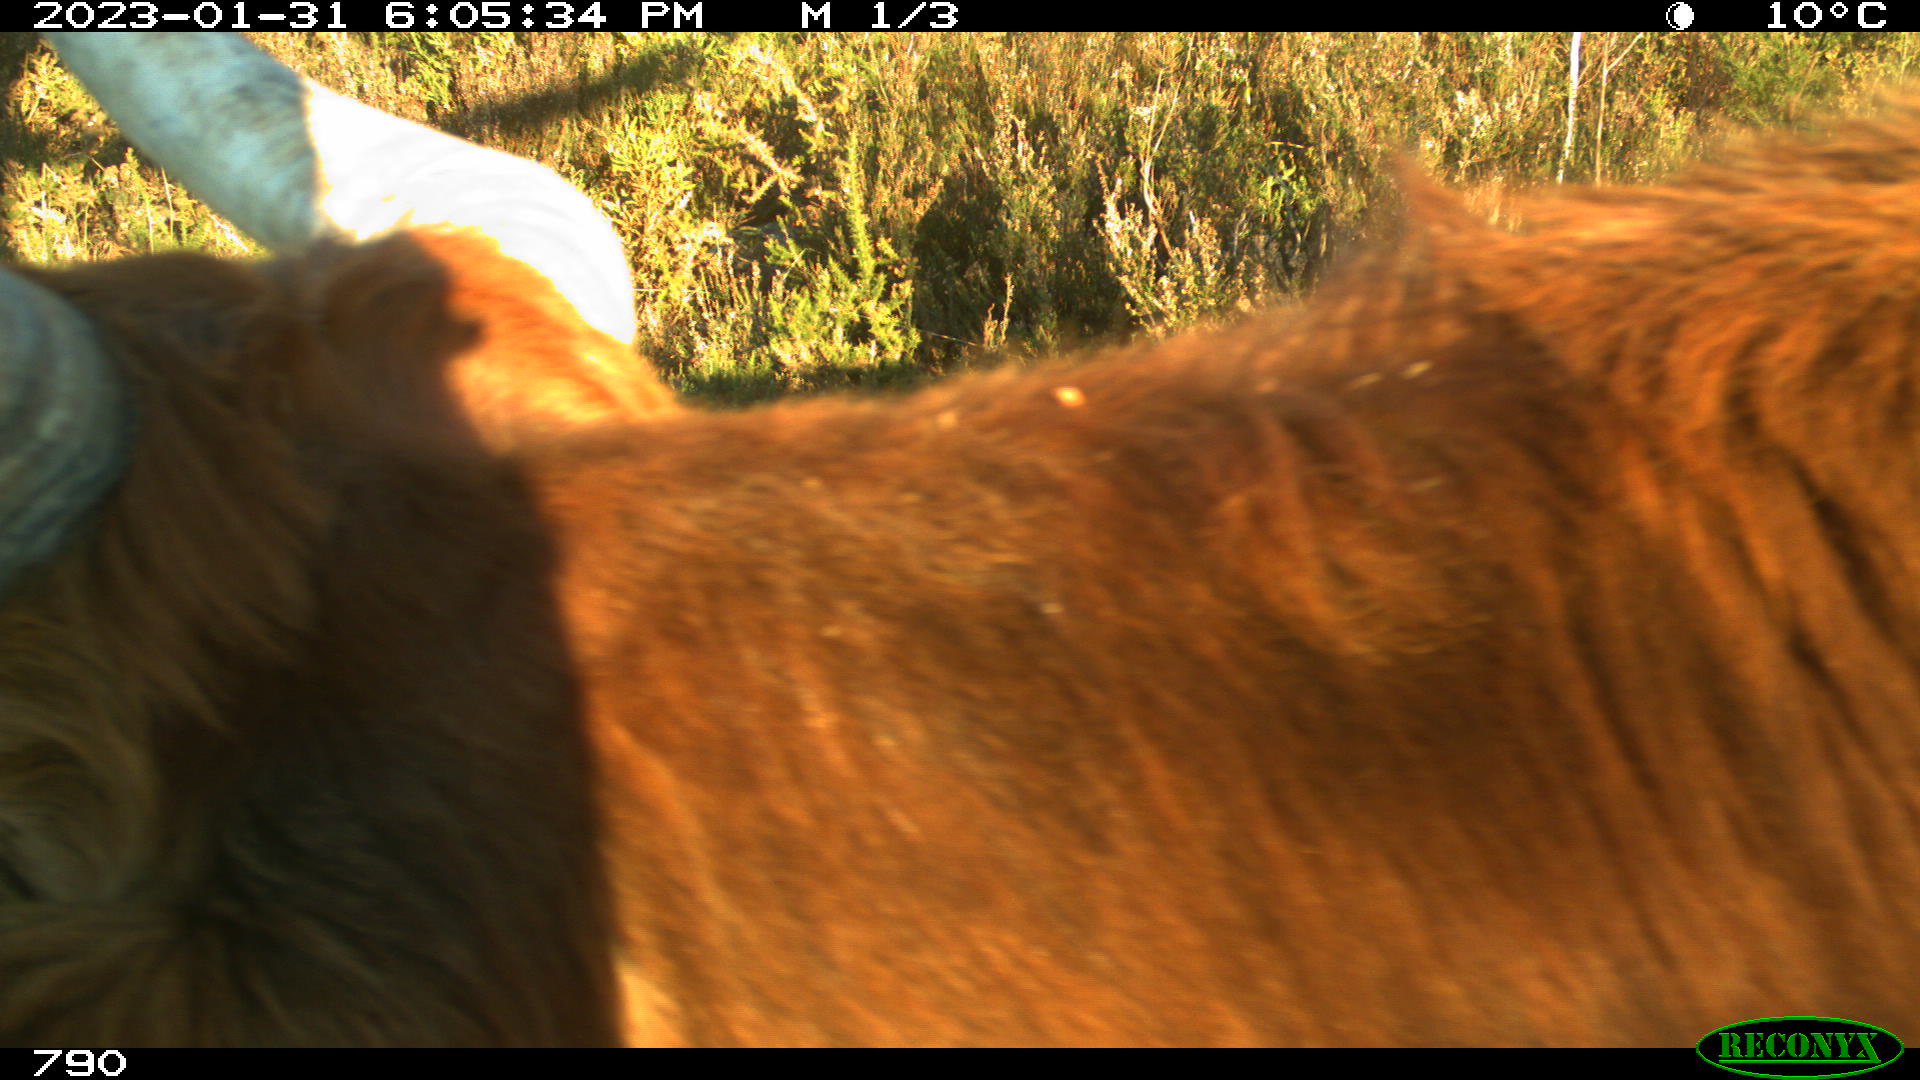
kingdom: Animalia
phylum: Chordata
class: Mammalia
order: Artiodactyla
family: Bovidae
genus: Bos
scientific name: Bos taurus
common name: Domesticated cattle
